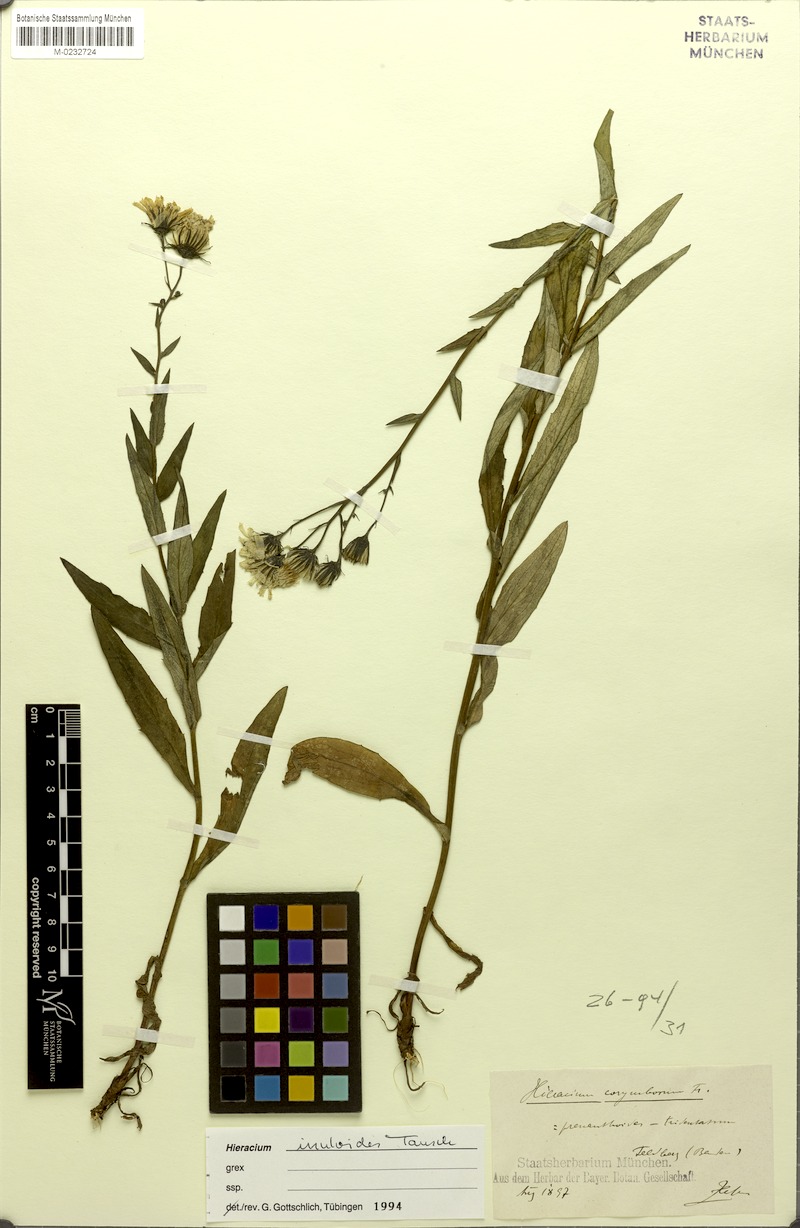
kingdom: Plantae
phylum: Tracheophyta
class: Magnoliopsida
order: Asterales
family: Asteraceae
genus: Hieracium
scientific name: Hieracium inuloides
